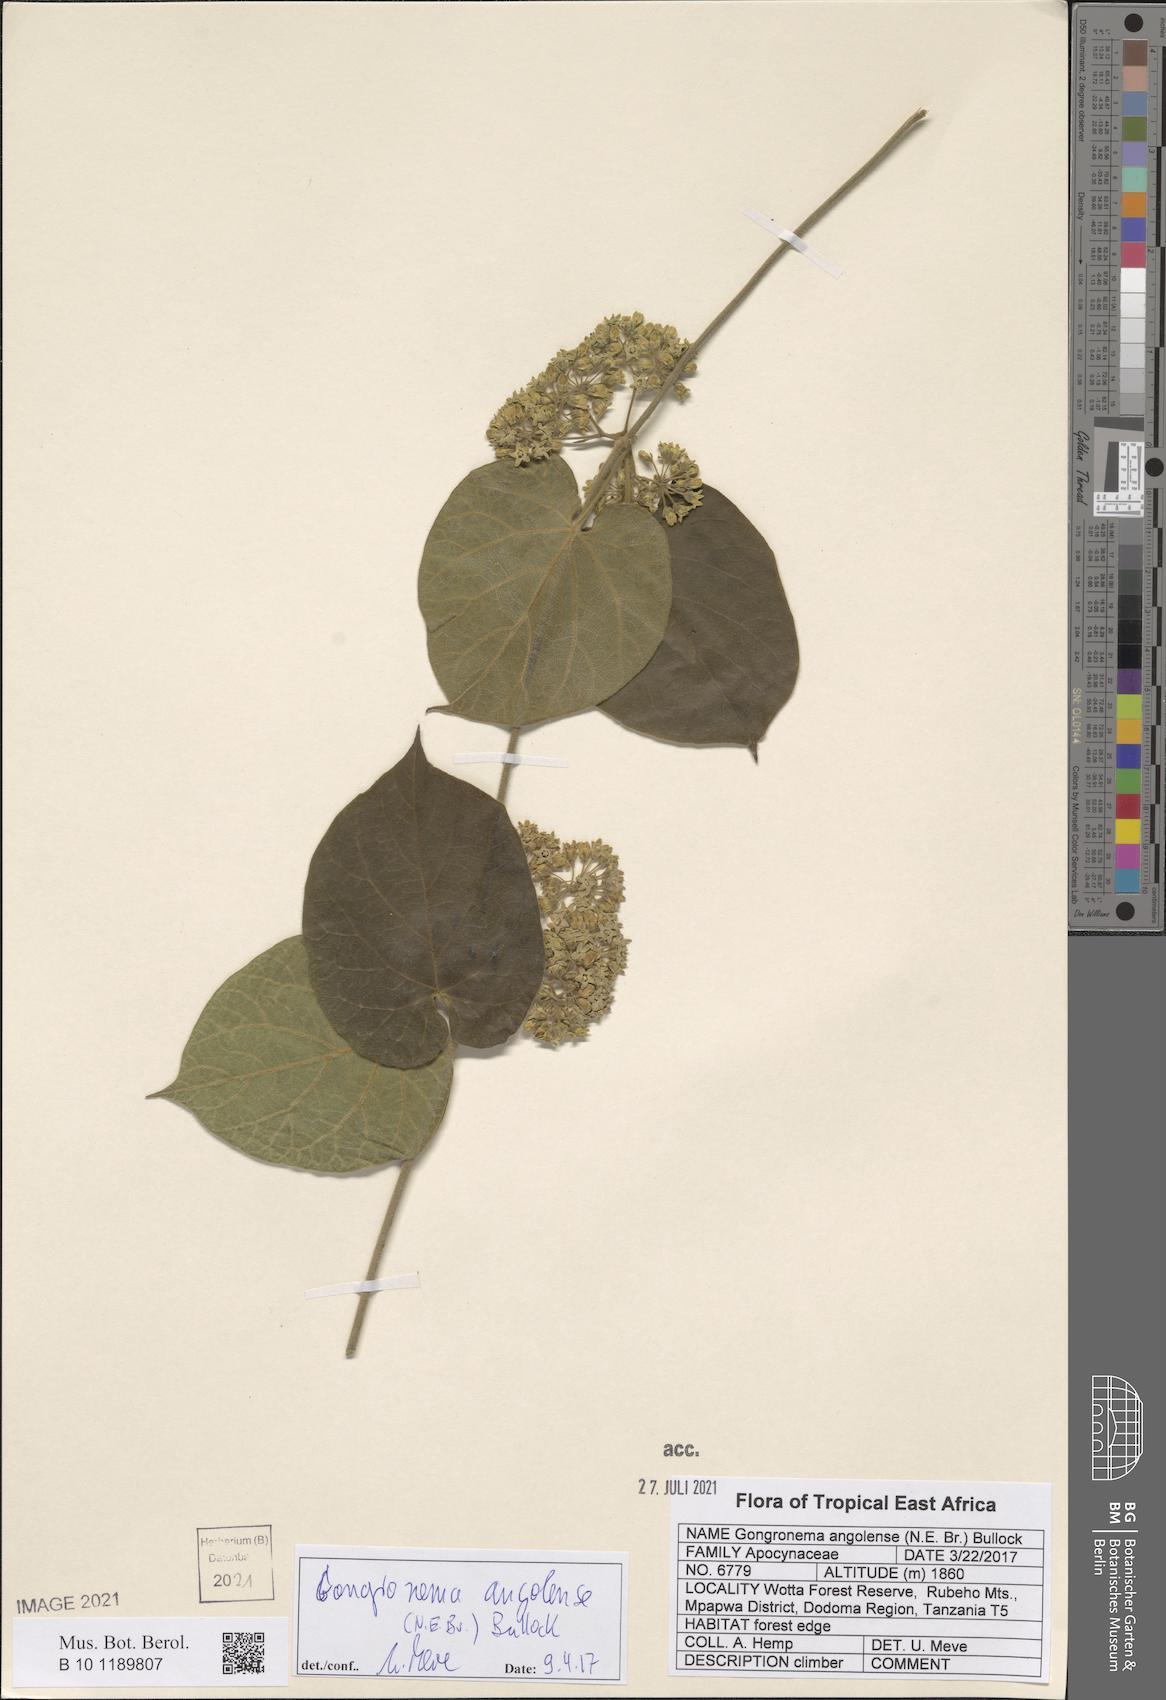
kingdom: Plantae
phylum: Tracheophyta
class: Magnoliopsida
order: Gentianales
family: Apocynaceae
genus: Gongronemopsis
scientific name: Gongronemopsis angolensis
